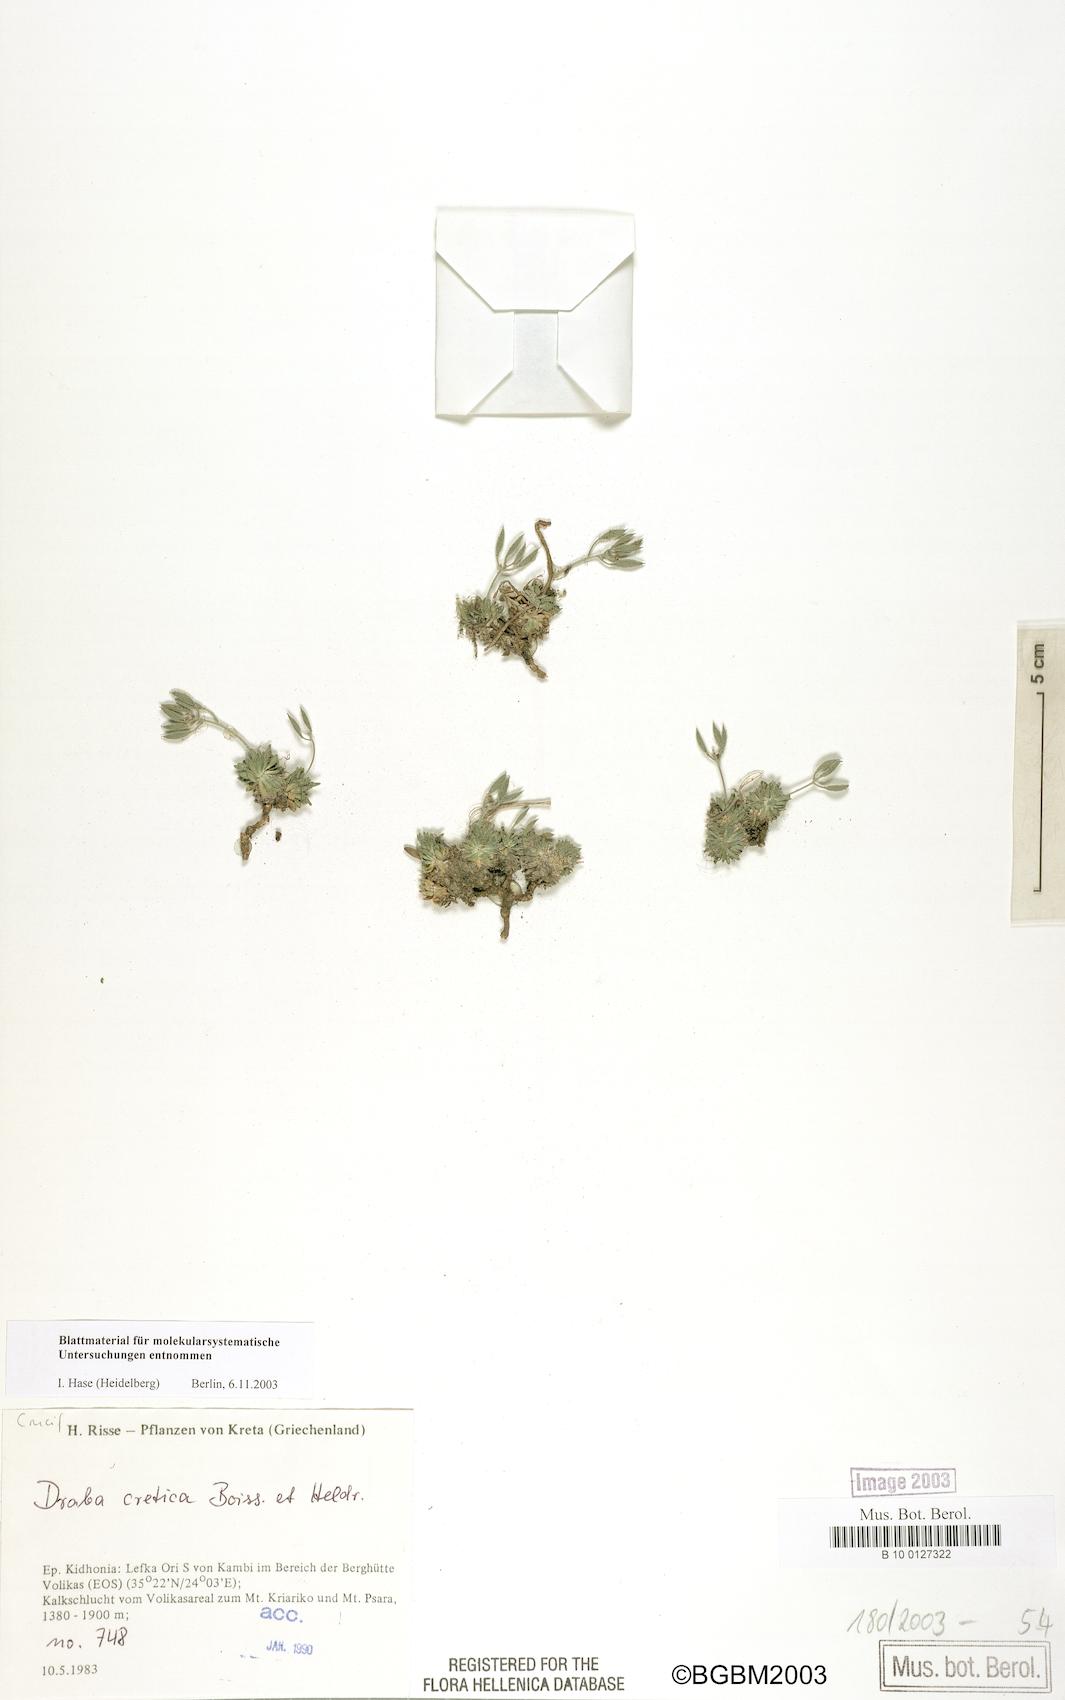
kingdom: Plantae
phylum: Tracheophyta
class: Magnoliopsida
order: Brassicales
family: Brassicaceae
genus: Draba
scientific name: Draba cretica
